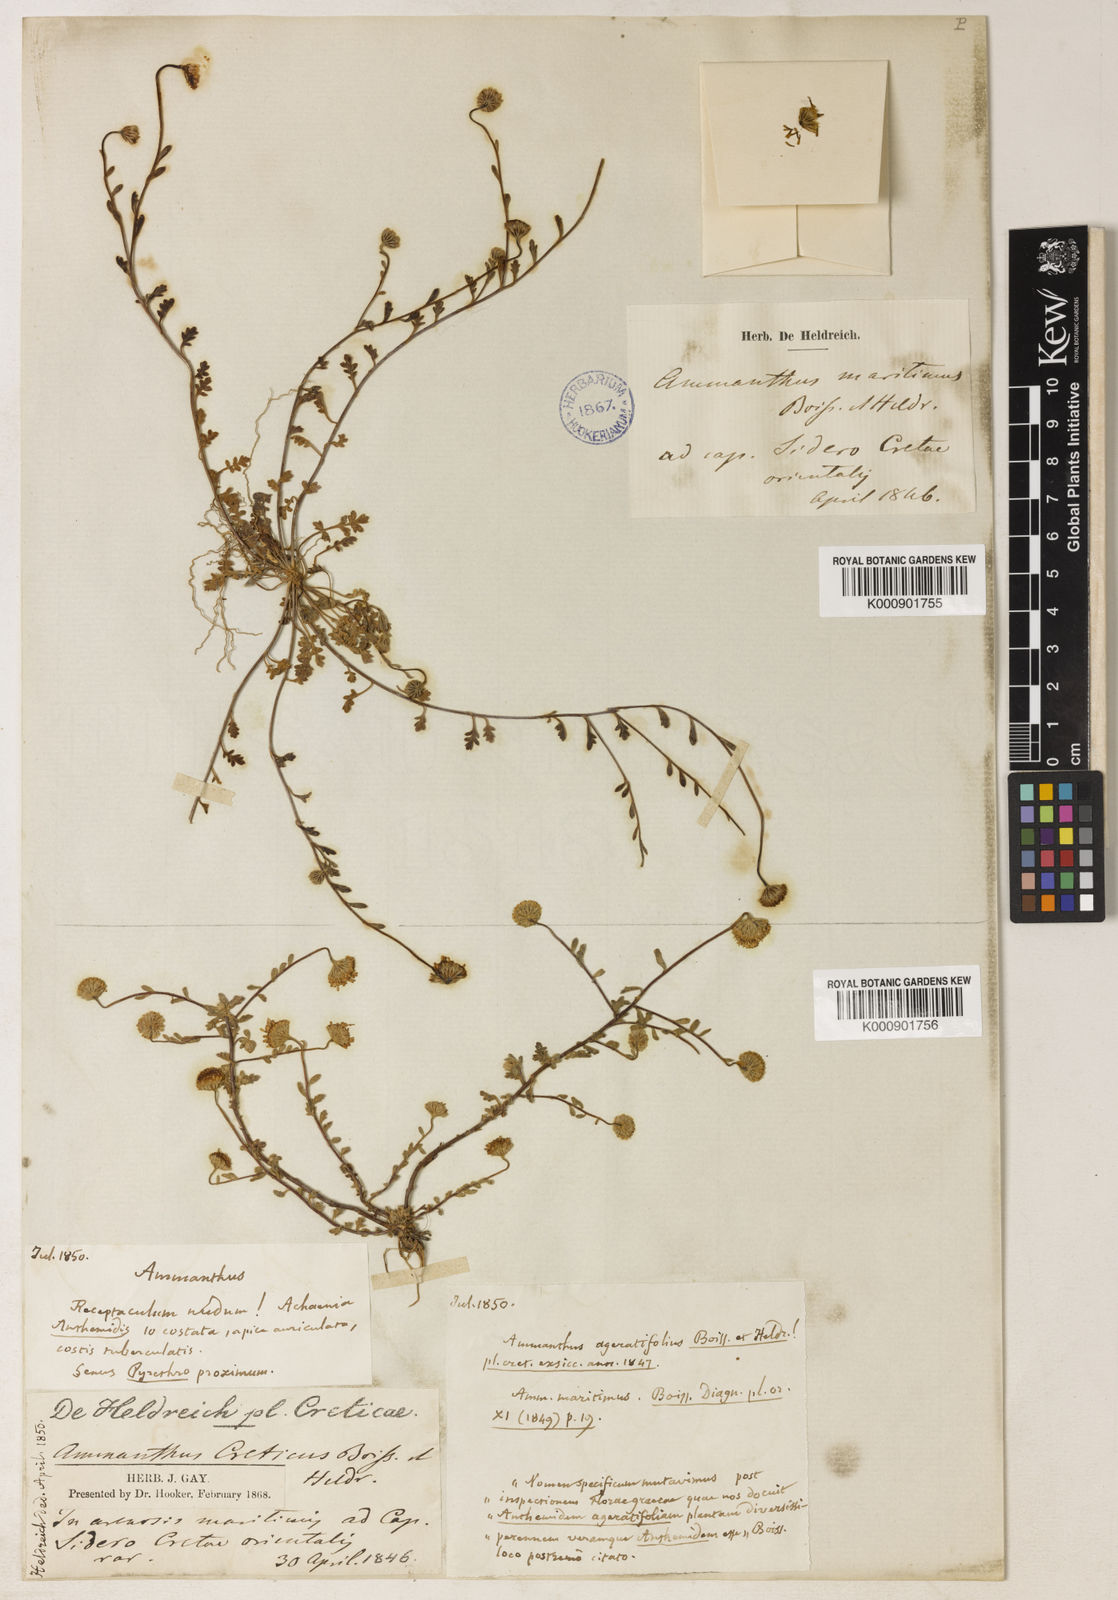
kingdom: Plantae
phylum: Tracheophyta
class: Magnoliopsida
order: Asterales
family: Asteraceae
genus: Anthemis
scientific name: Anthemis maritima
